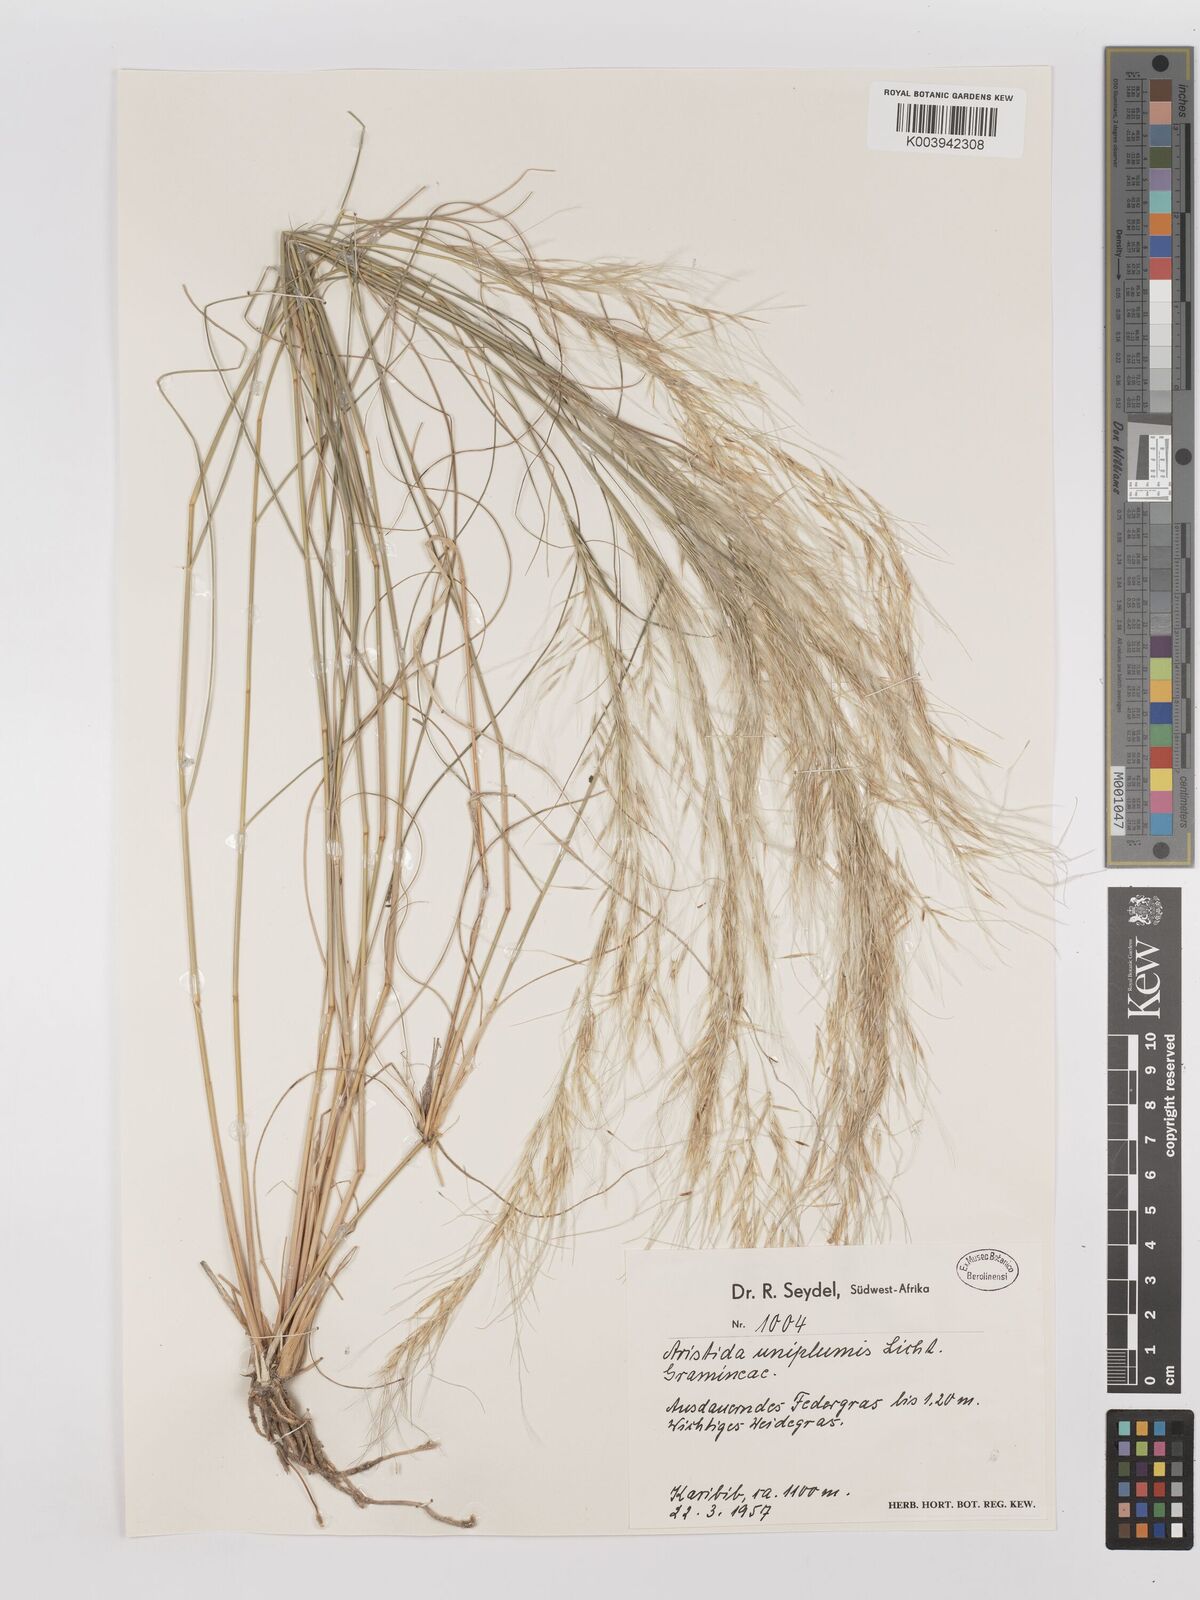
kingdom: Plantae
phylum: Tracheophyta
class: Liliopsida
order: Poales
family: Poaceae
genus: Stipagrostis
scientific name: Stipagrostis uniplumis
